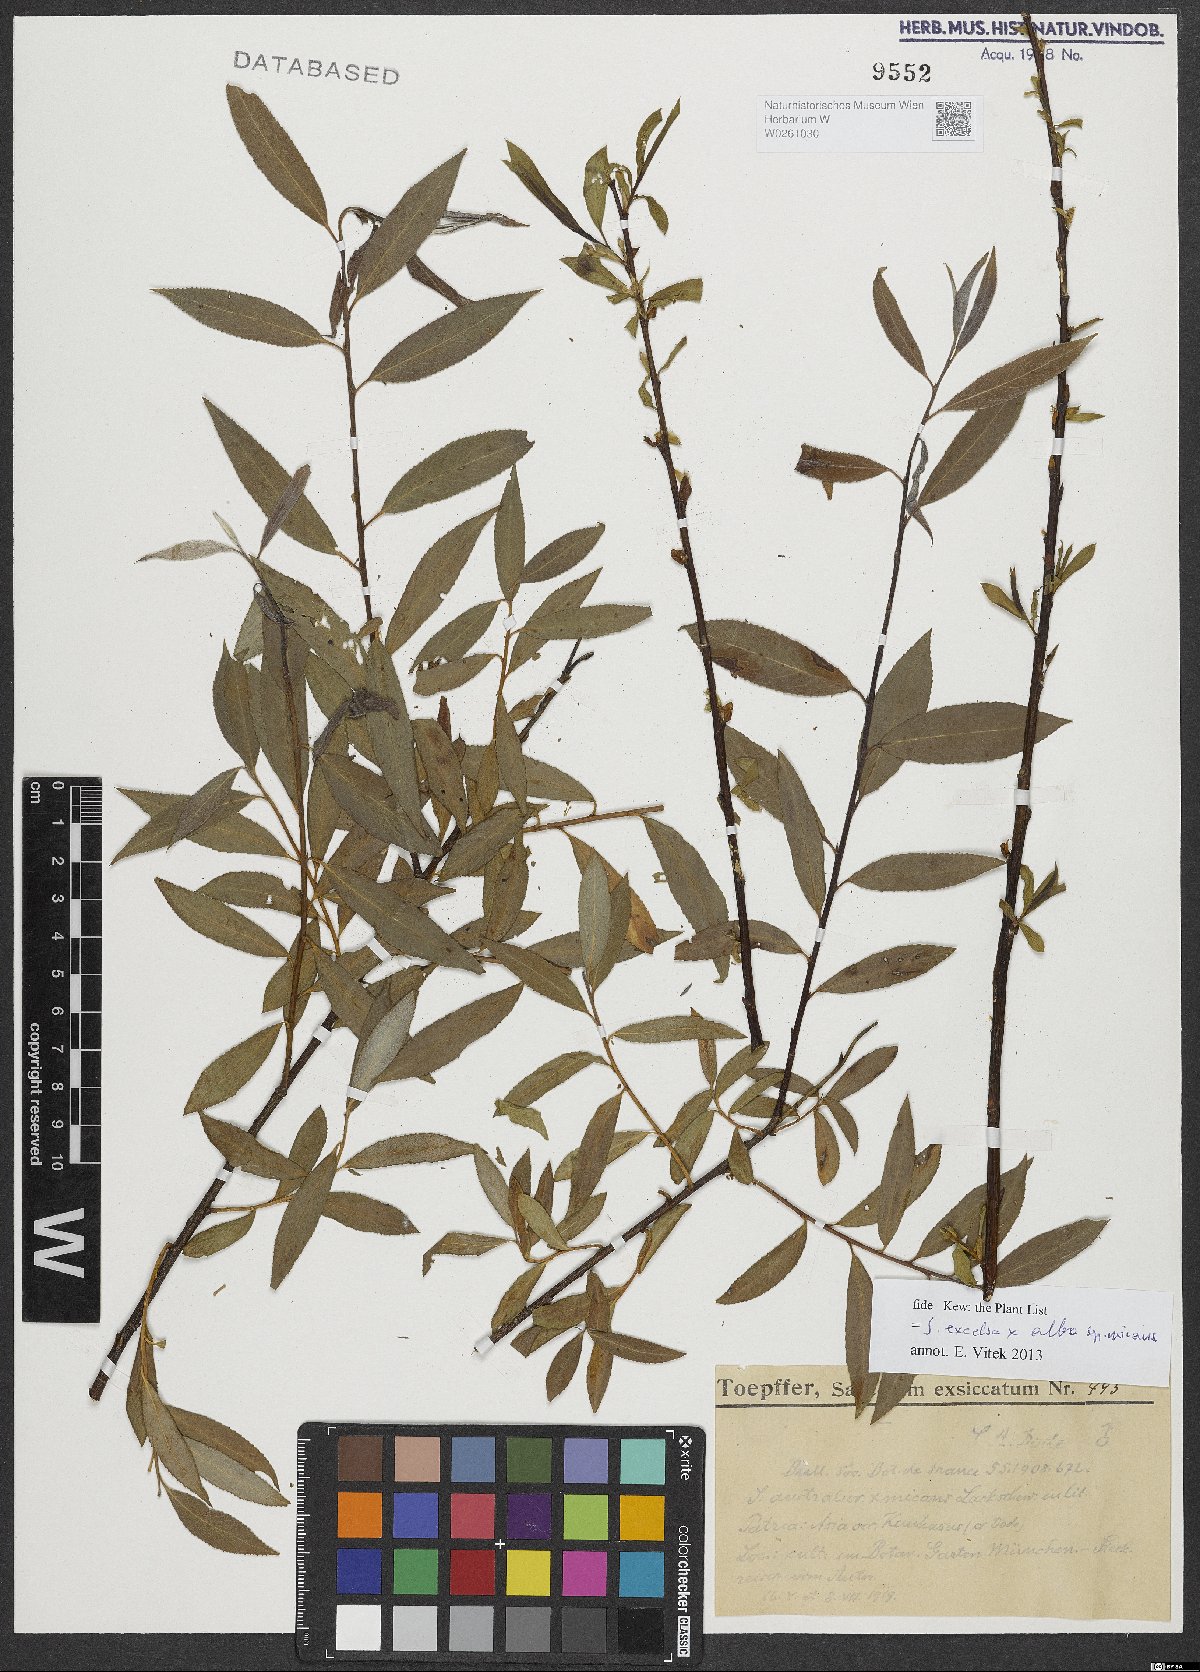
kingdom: Plantae
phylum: Tracheophyta
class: Magnoliopsida
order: Malpighiales
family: Salicaceae
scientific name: Salicaceae
